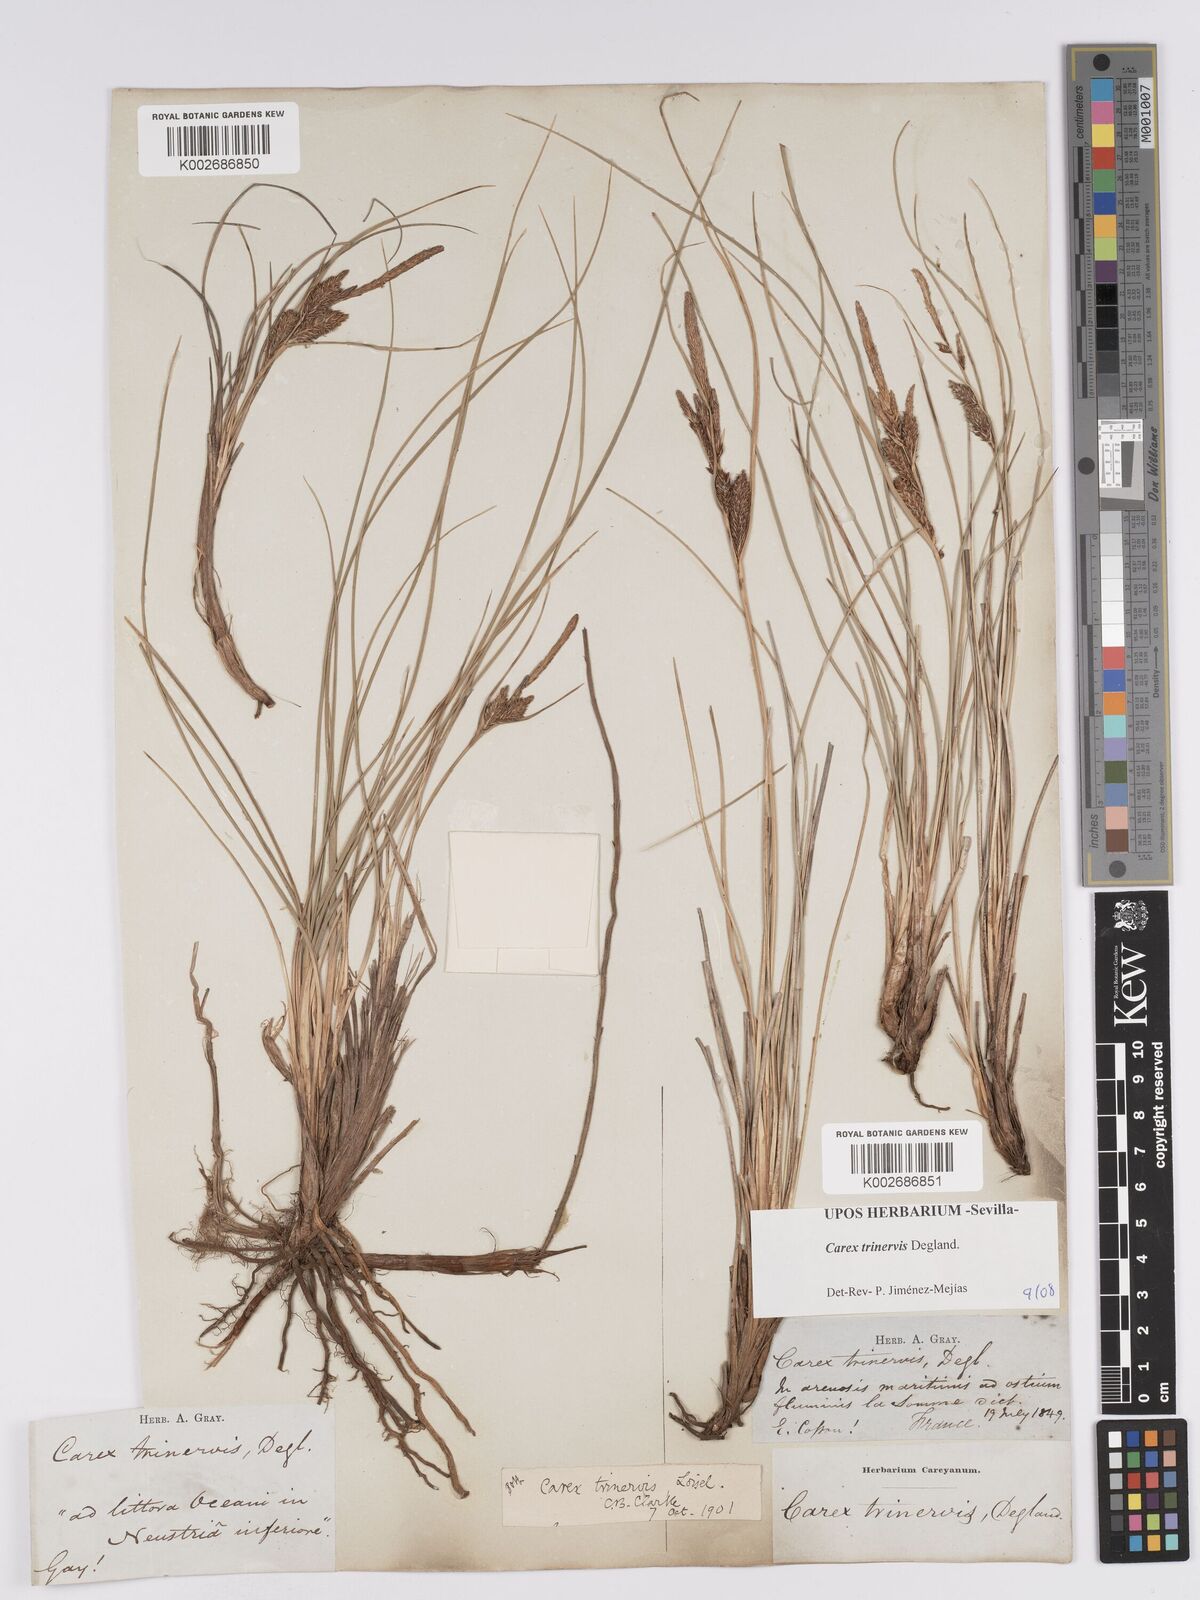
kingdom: Plantae
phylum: Tracheophyta
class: Liliopsida
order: Poales
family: Cyperaceae
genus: Carex
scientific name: Carex trinervis
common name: Three-nerved sedge
